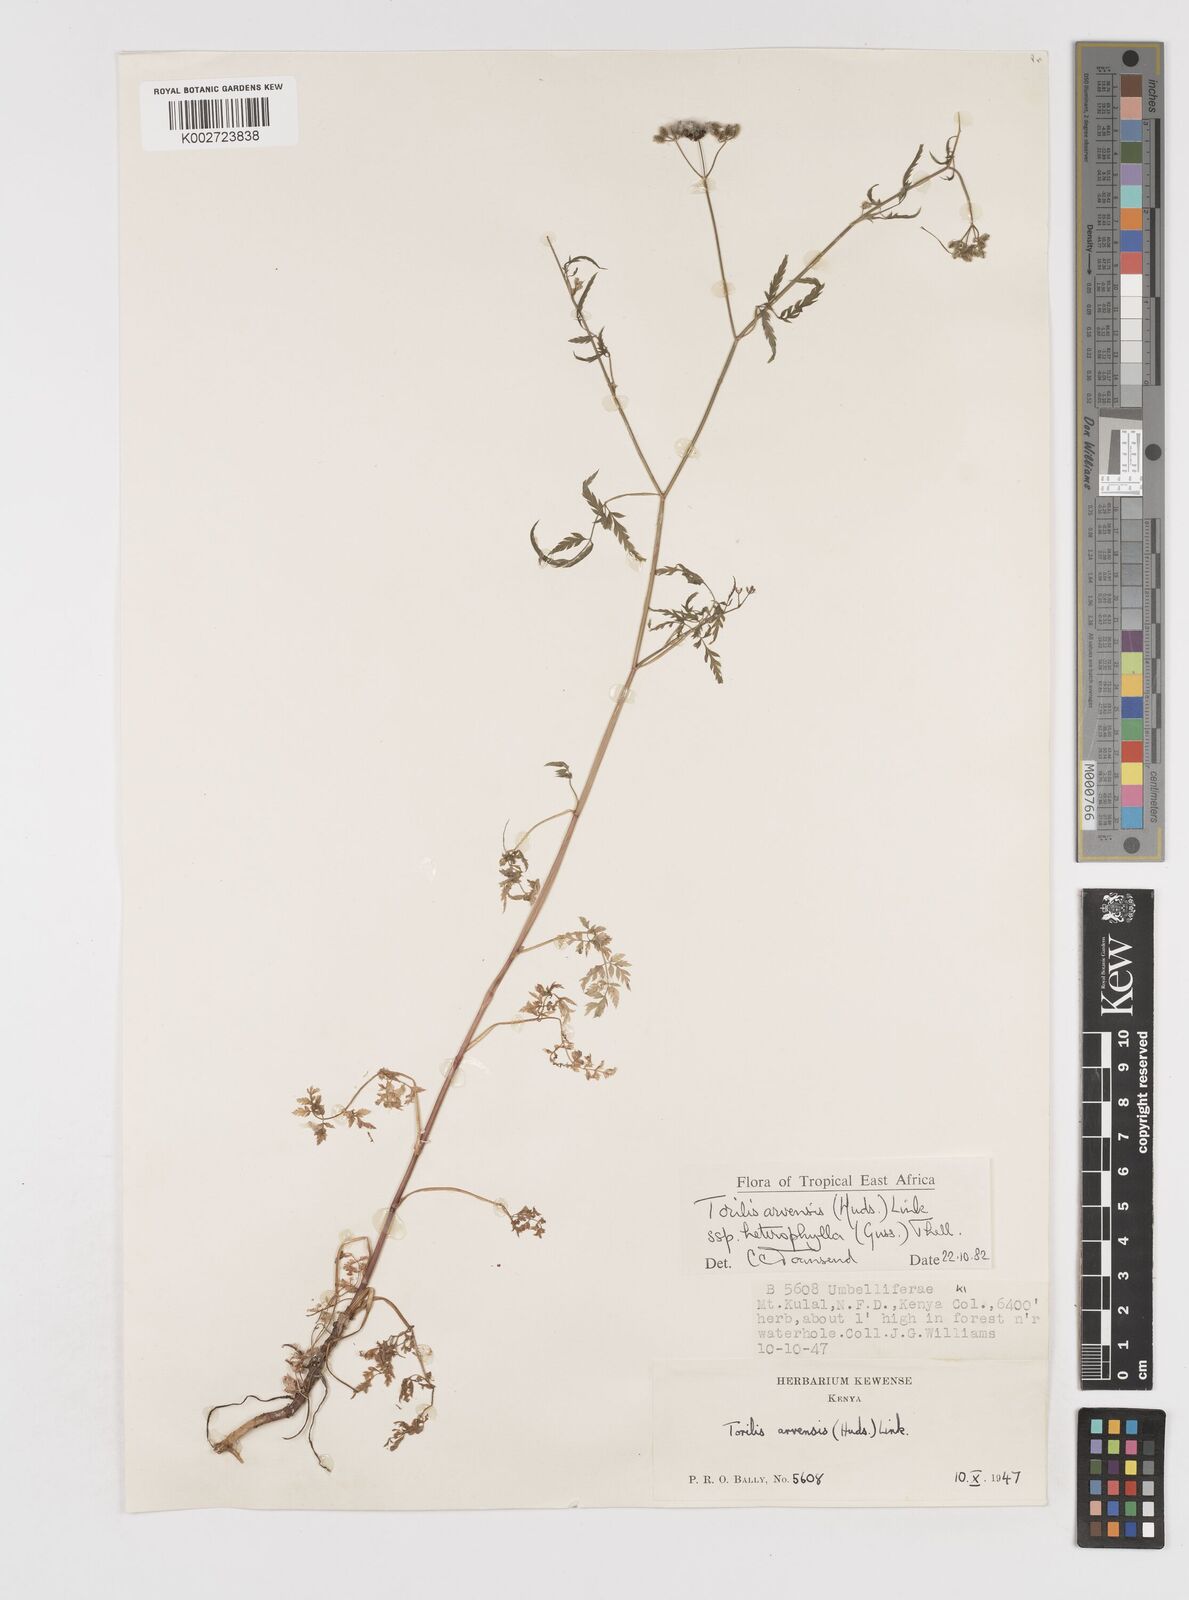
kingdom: Plantae
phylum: Tracheophyta
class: Magnoliopsida
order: Apiales
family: Apiaceae
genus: Torilis
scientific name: Torilis arvensis
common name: Spreading hedge-parsley
